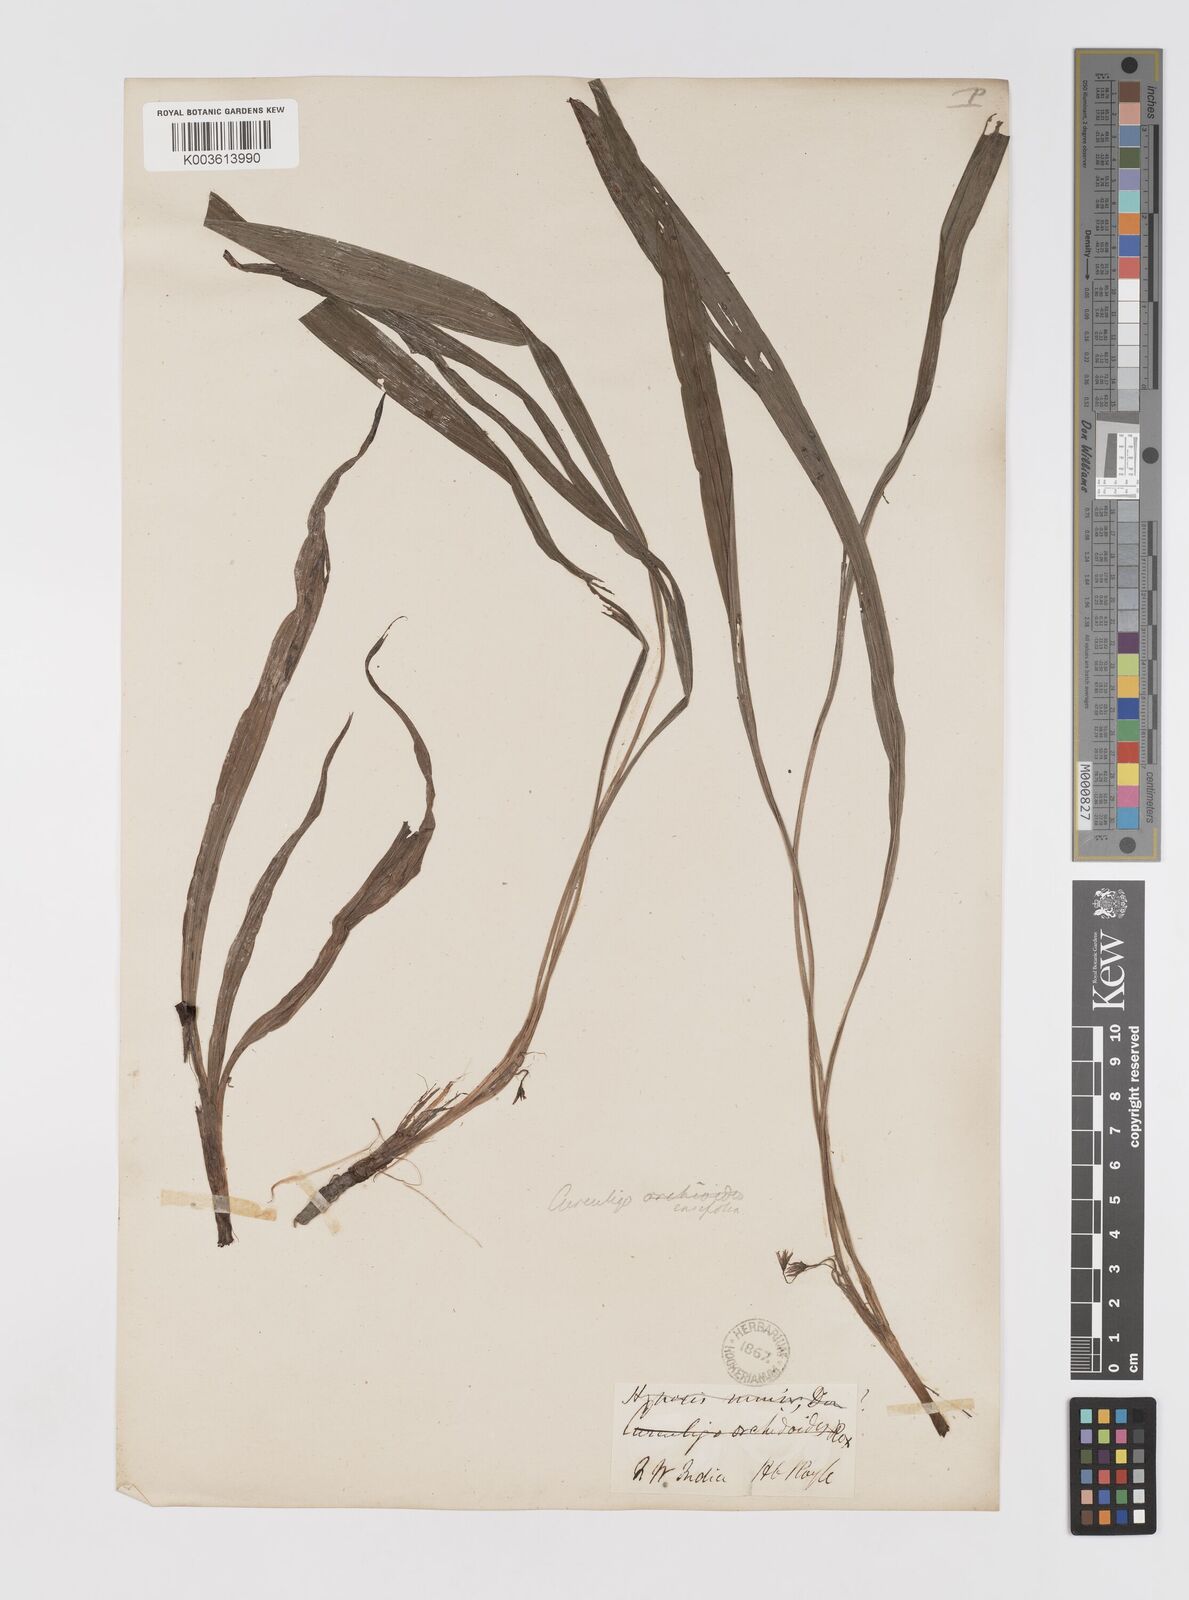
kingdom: Plantae
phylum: Tracheophyta
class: Liliopsida
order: Asparagales
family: Hypoxidaceae
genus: Curculigo
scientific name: Curculigo ensifolia
